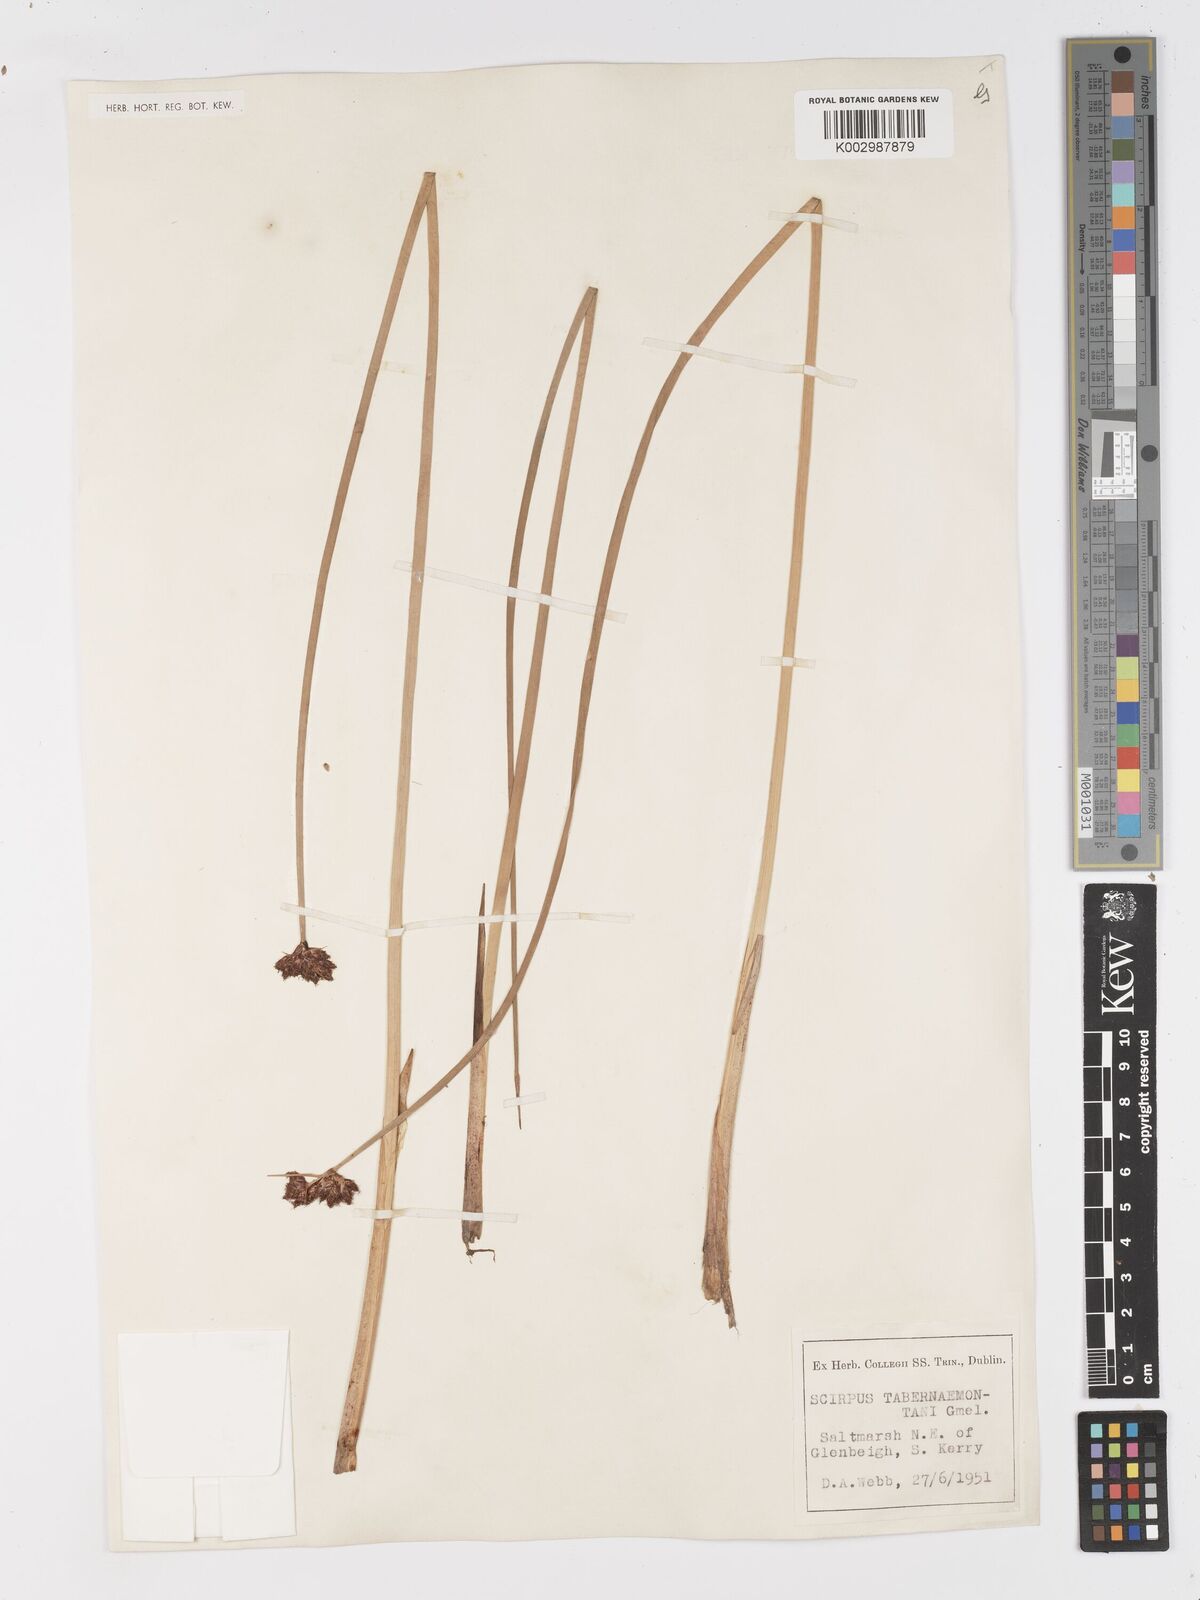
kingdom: Plantae
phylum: Tracheophyta
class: Liliopsida
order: Poales
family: Cyperaceae
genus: Schoenoplectus
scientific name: Schoenoplectus tabernaemontani
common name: Grey club-rush
